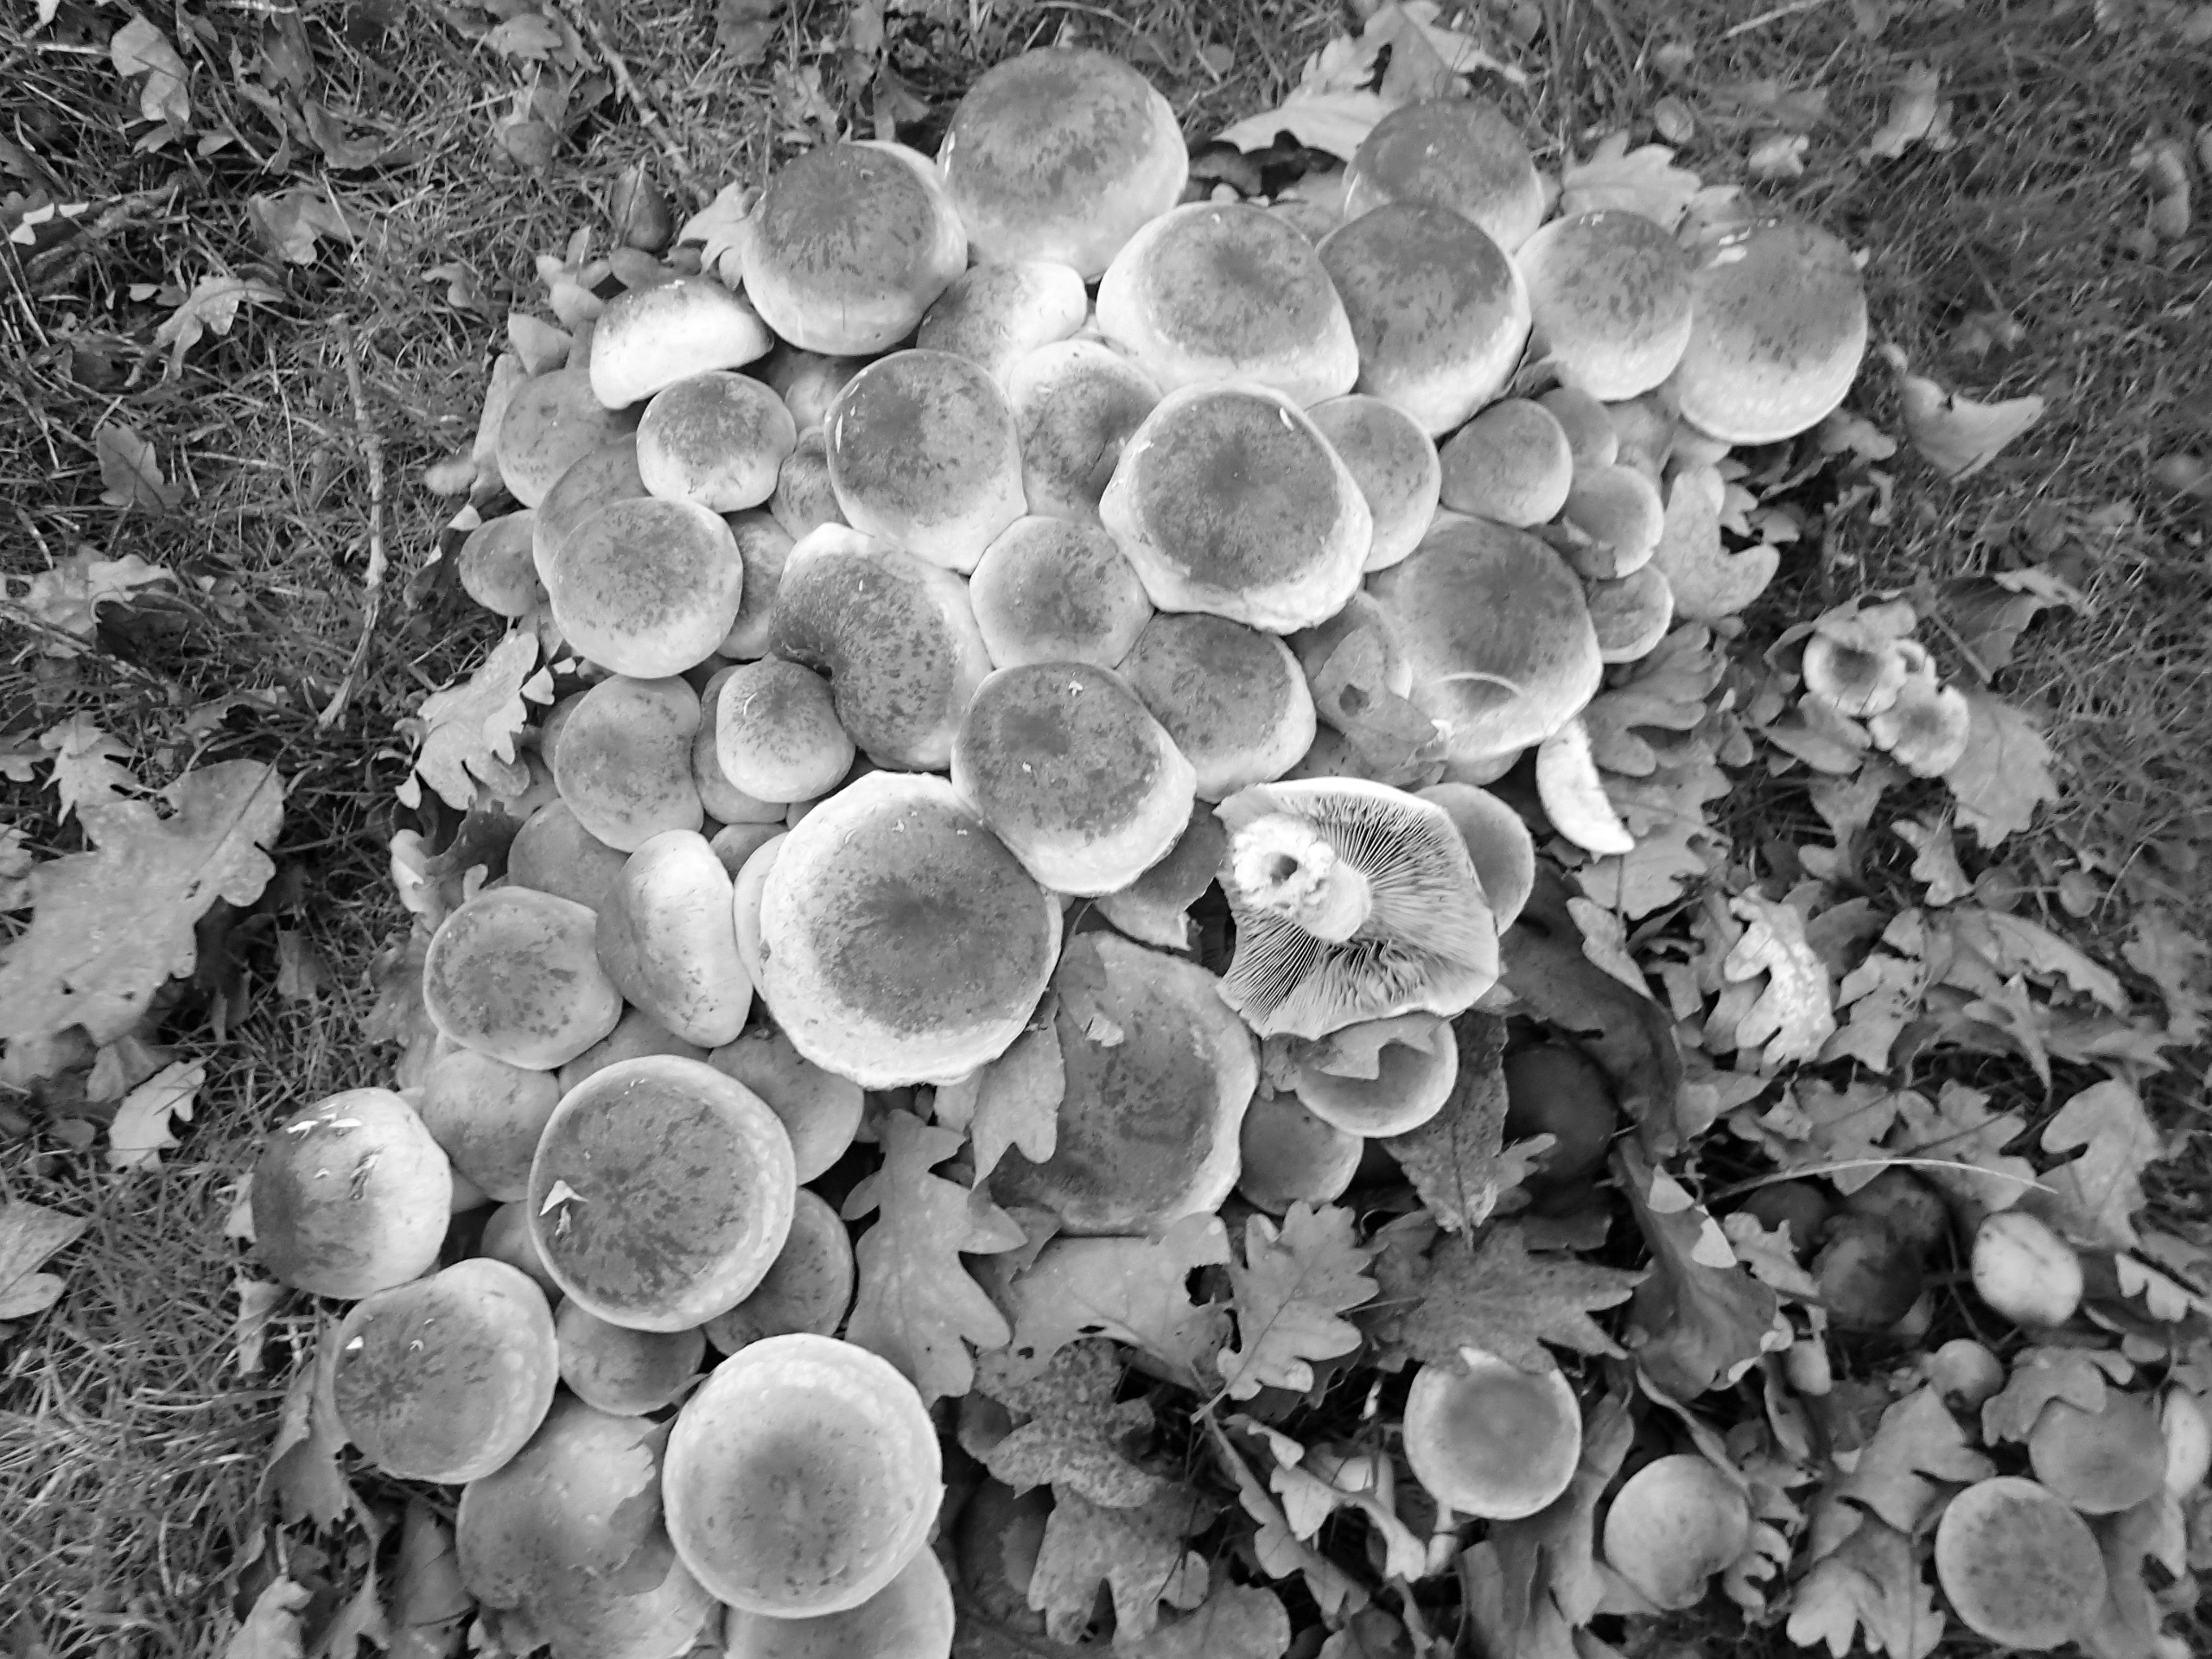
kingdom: Fungi
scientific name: Fungi
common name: Svamperiget
